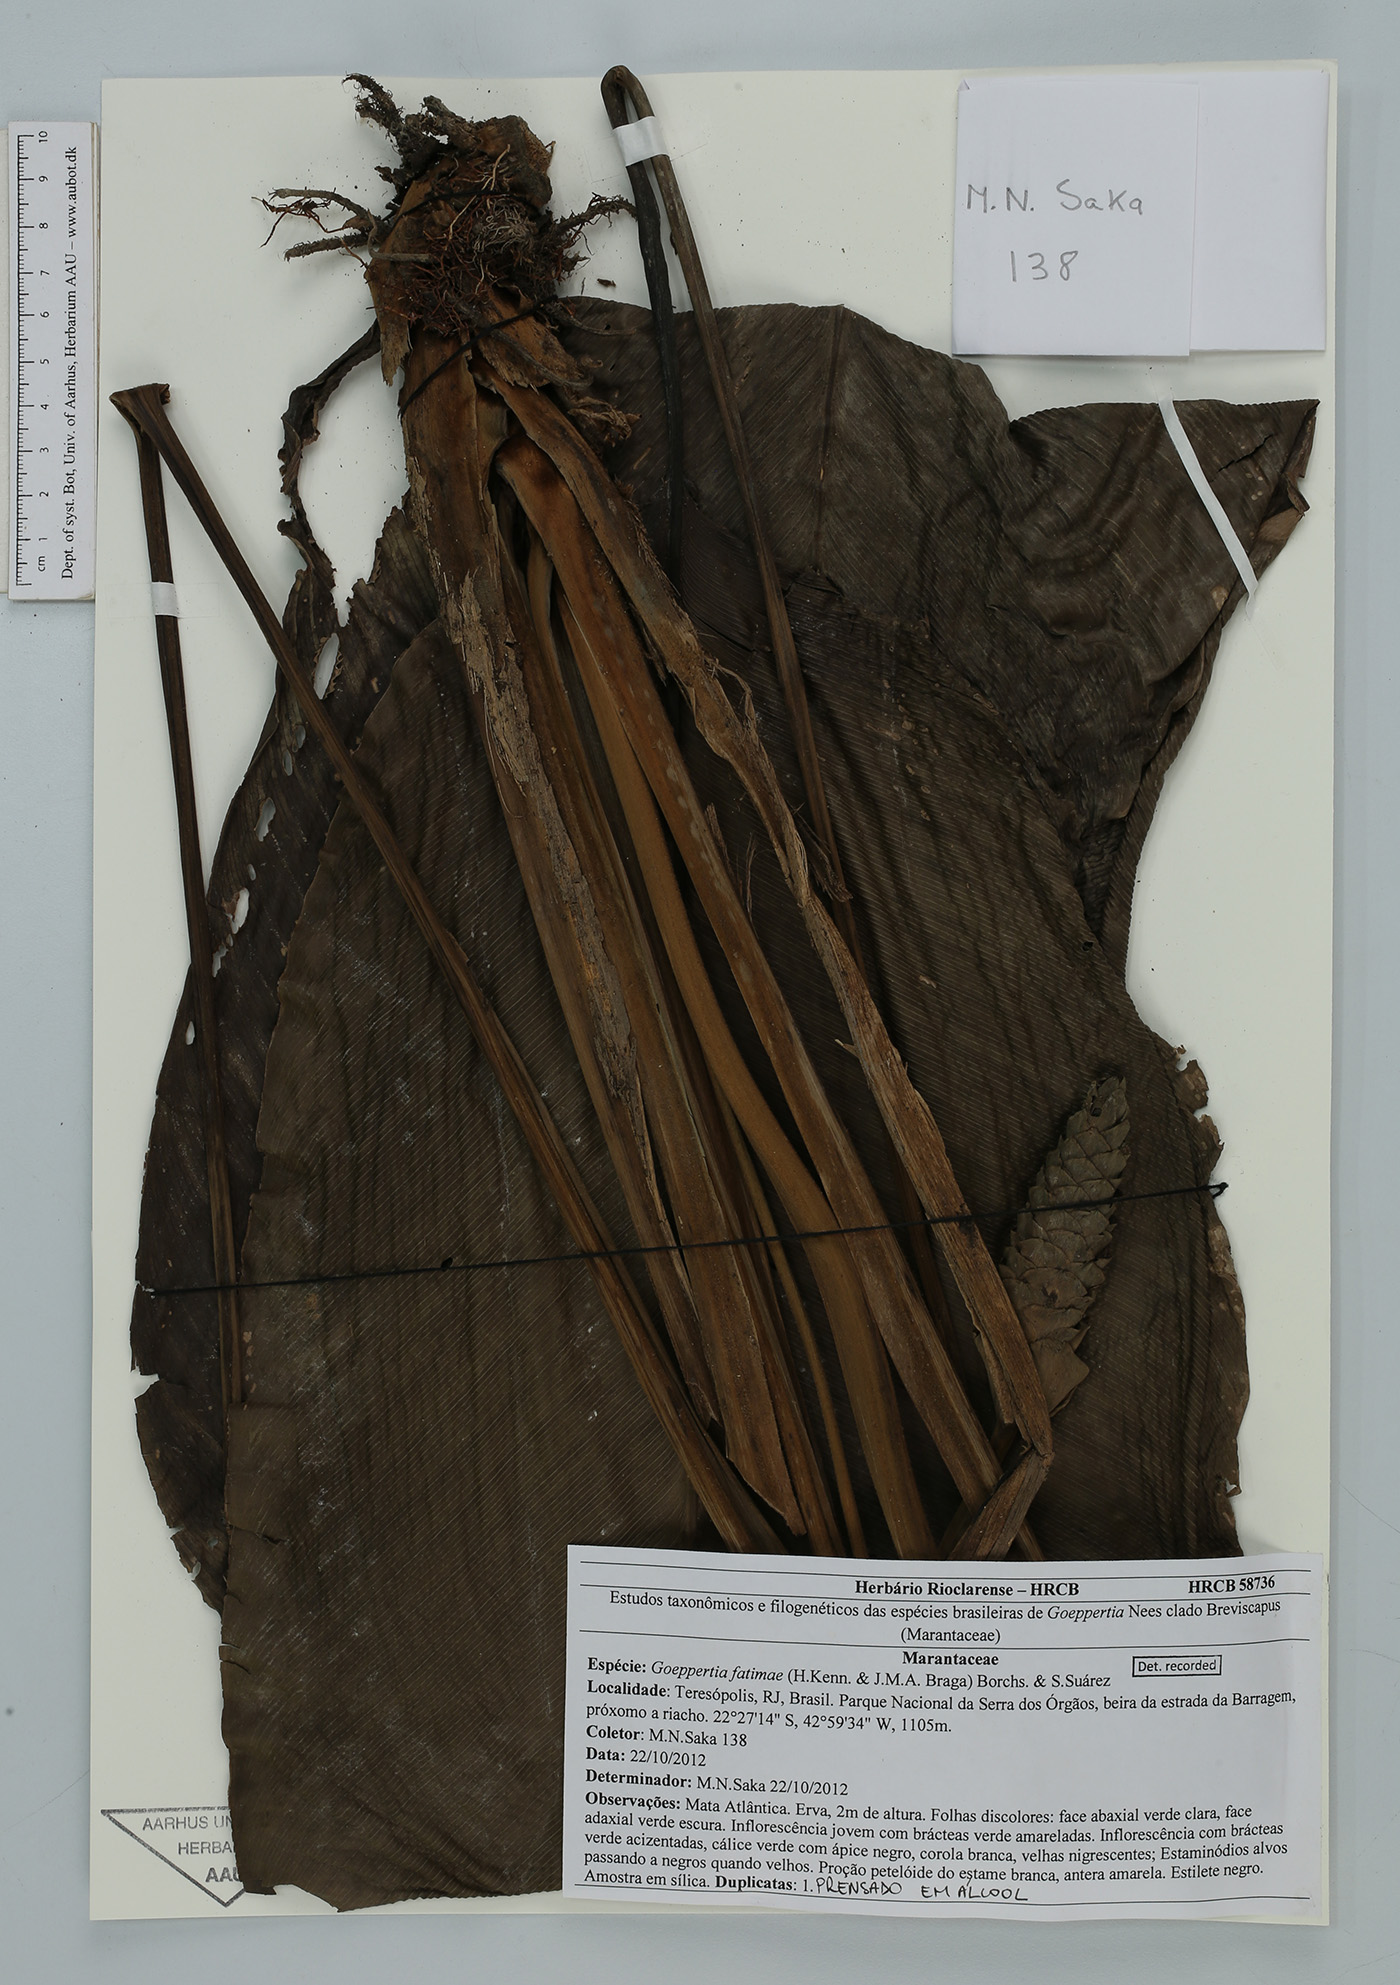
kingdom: Plantae
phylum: Tracheophyta
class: Liliopsida
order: Zingiberales
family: Marantaceae
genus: Goeppertia
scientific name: Goeppertia fatimae
